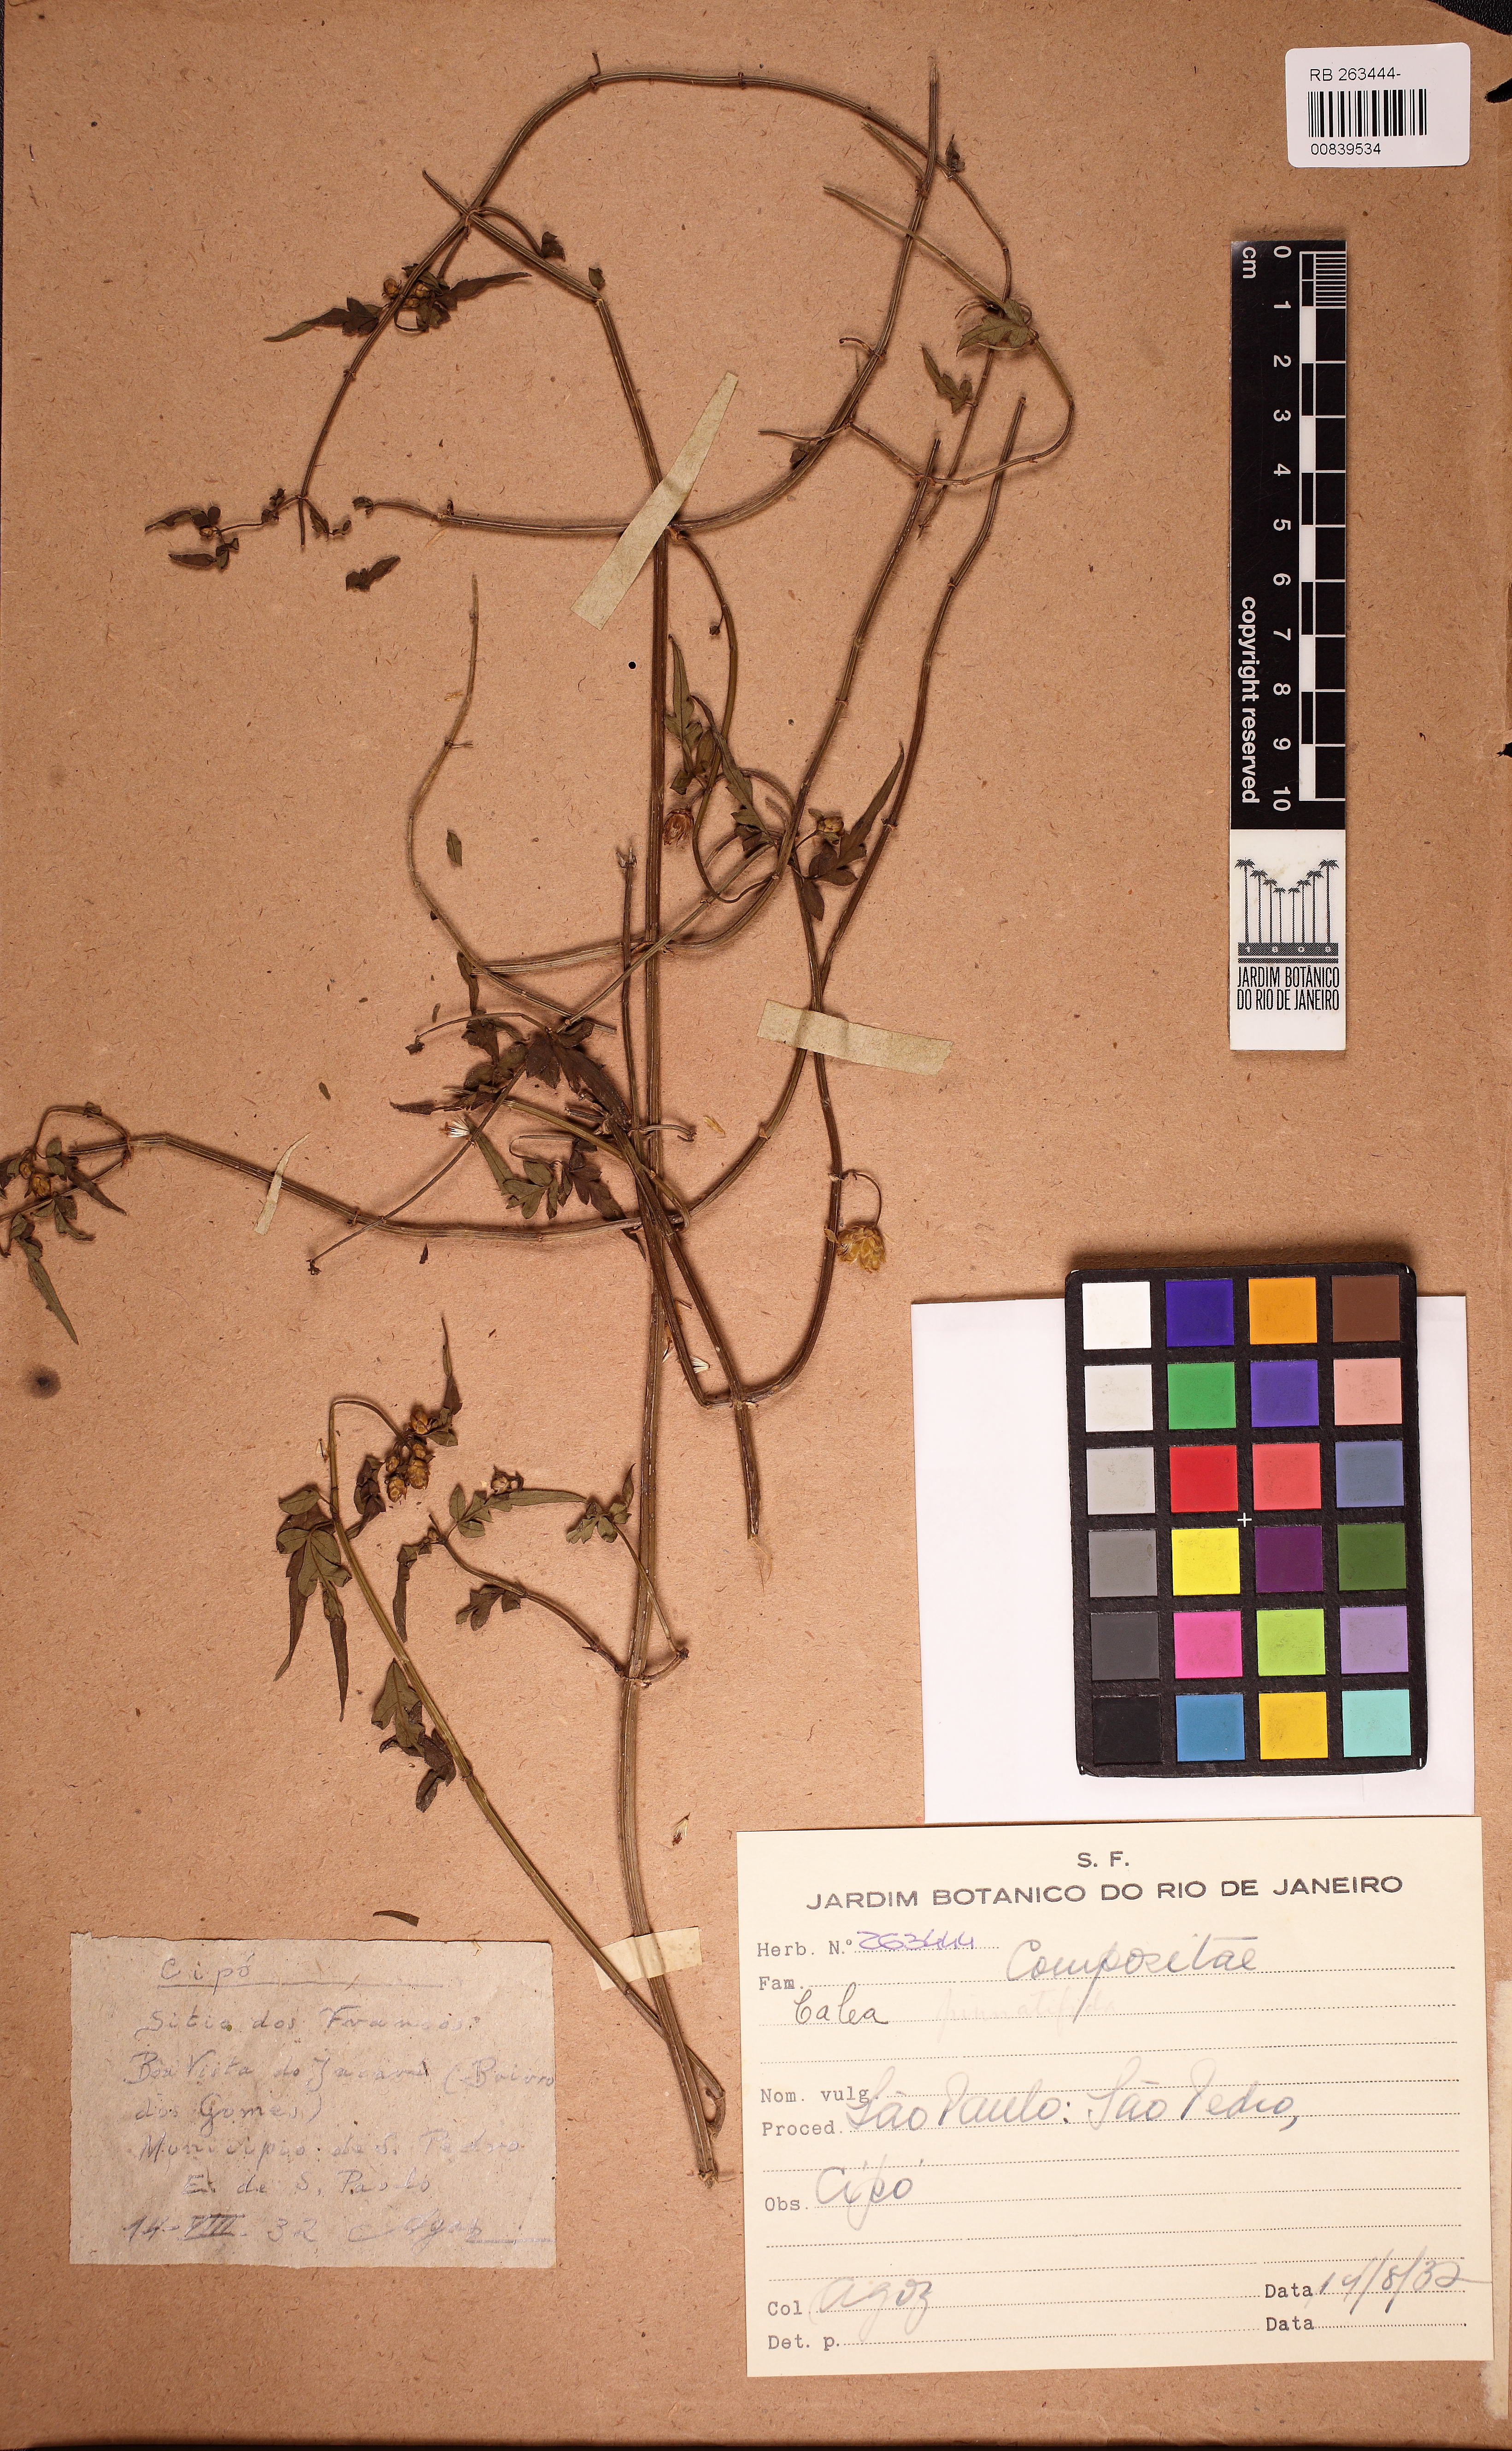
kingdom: Plantae
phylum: Tracheophyta
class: Magnoliopsida
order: Asterales
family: Asteraceae
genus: Calea
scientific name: Calea pinnatifida
